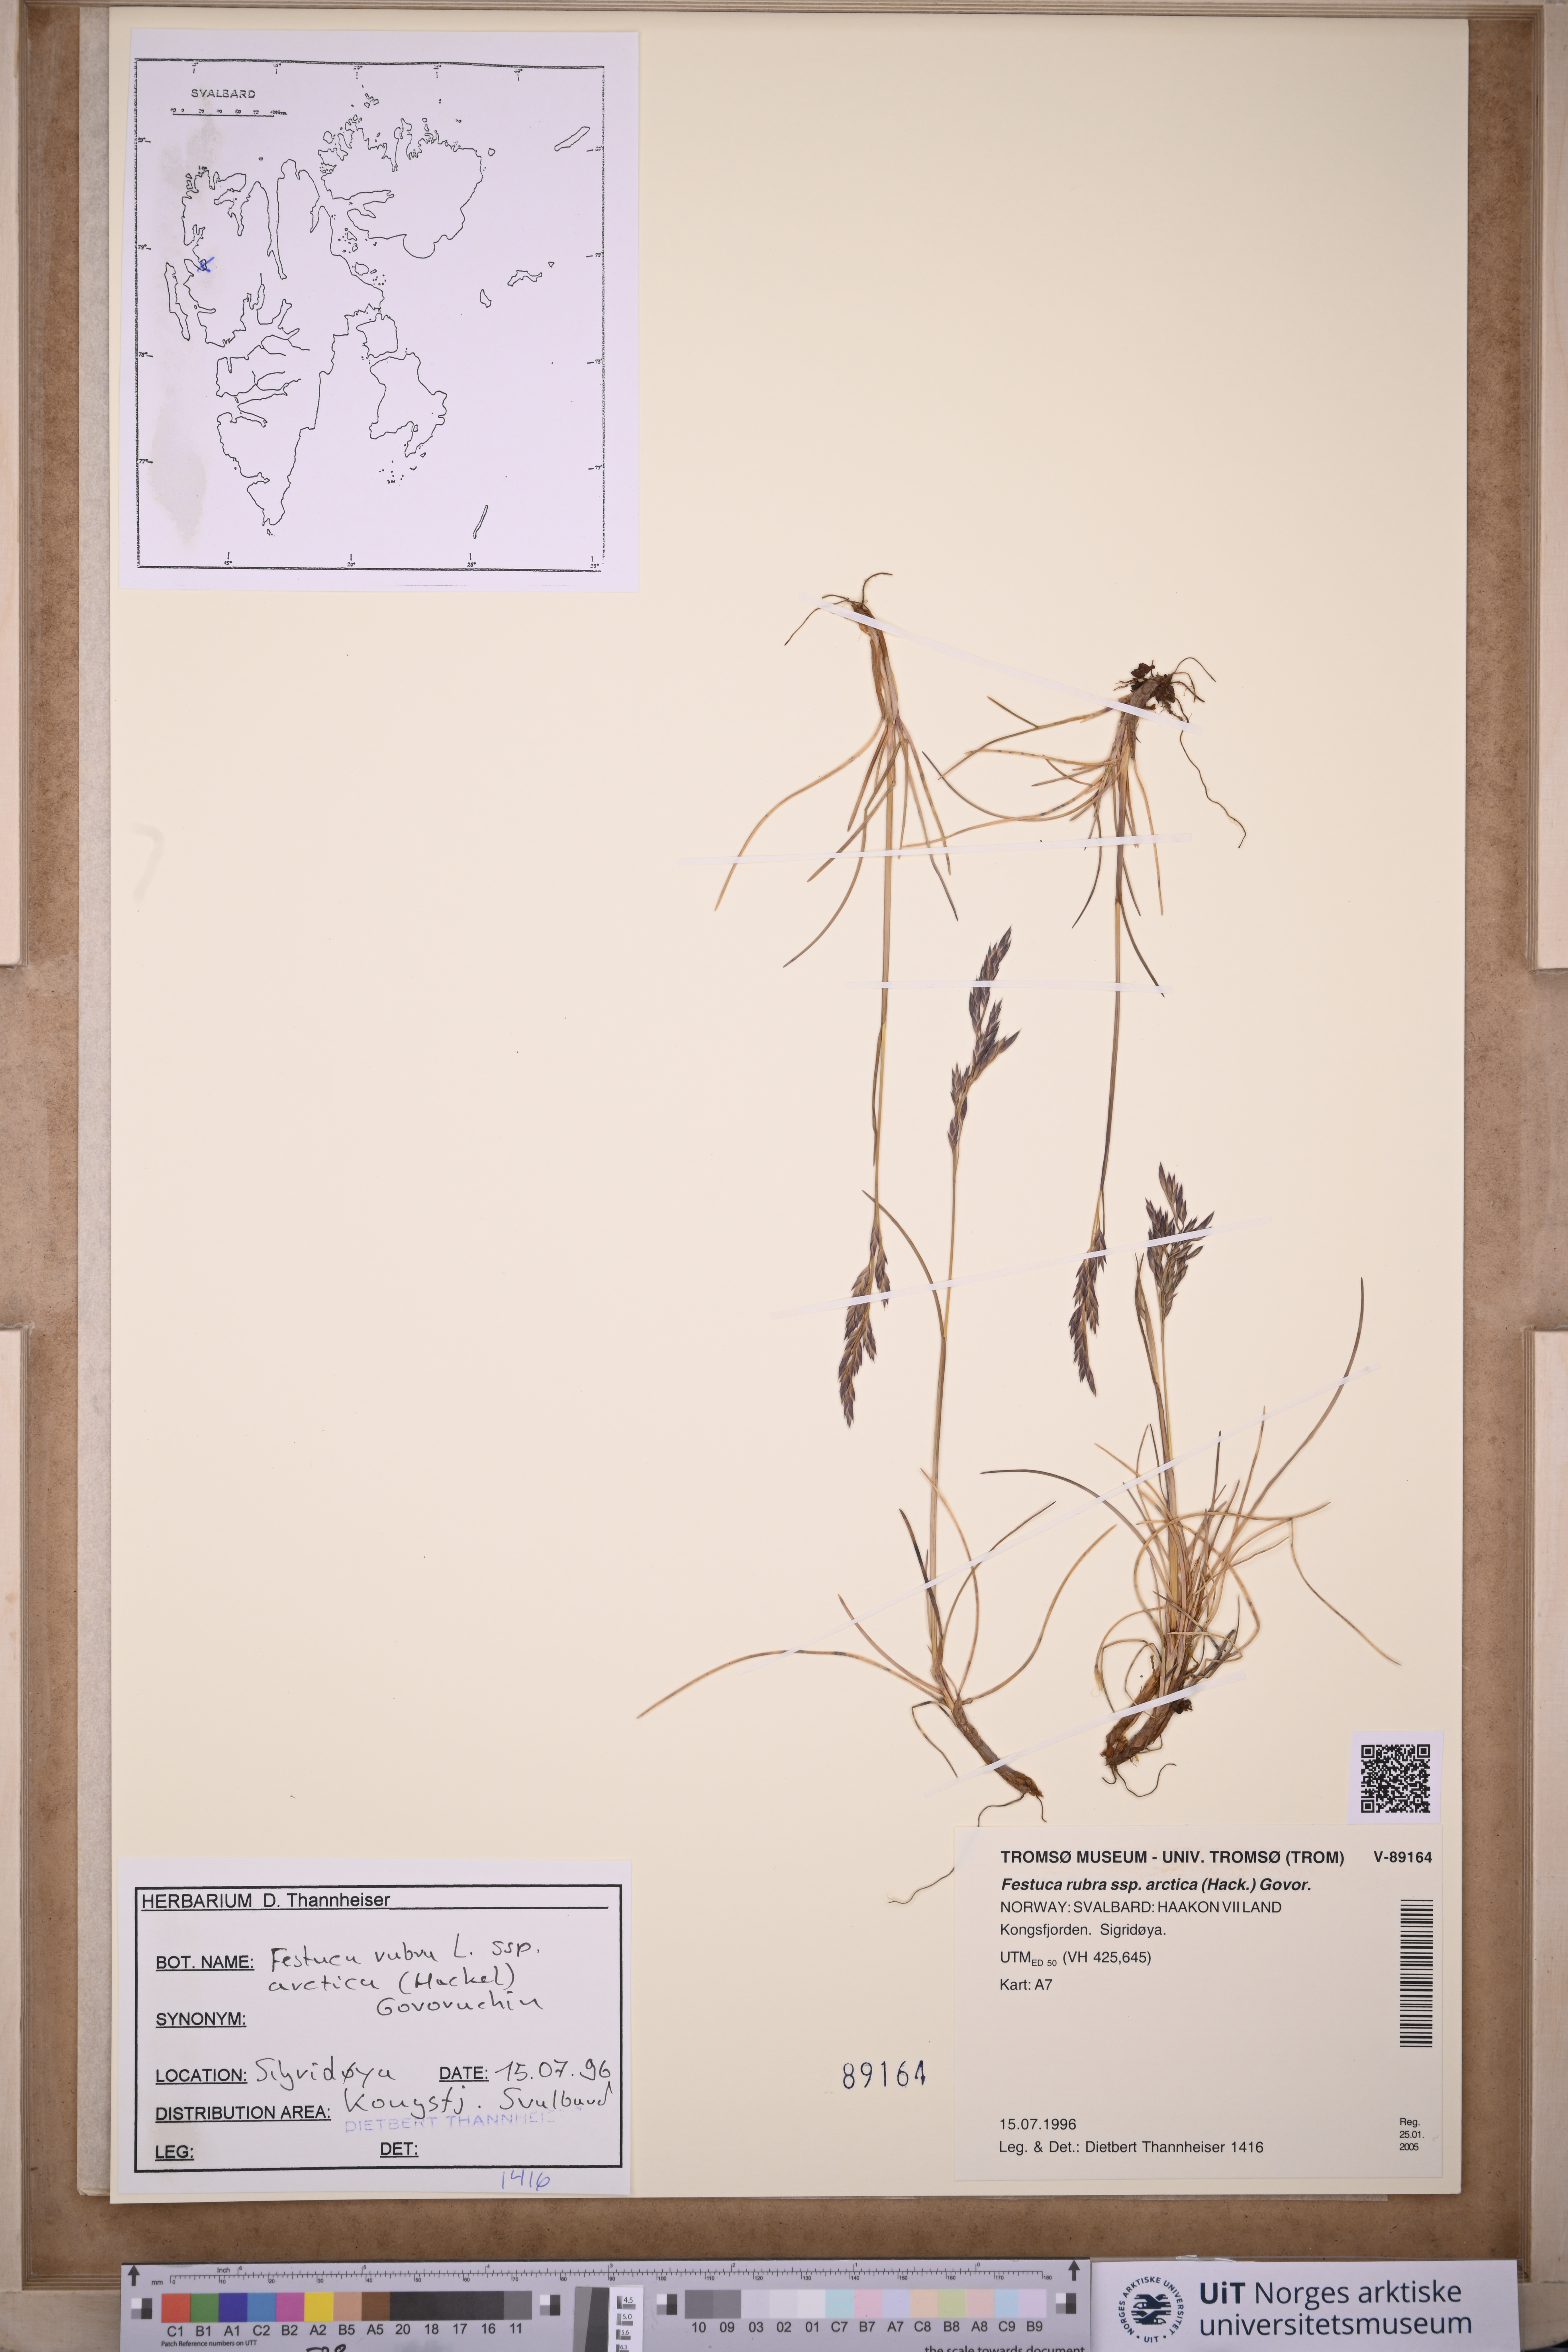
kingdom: Plantae
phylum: Tracheophyta
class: Liliopsida
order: Poales
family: Poaceae
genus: Festuca
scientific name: Festuca richardsonii
